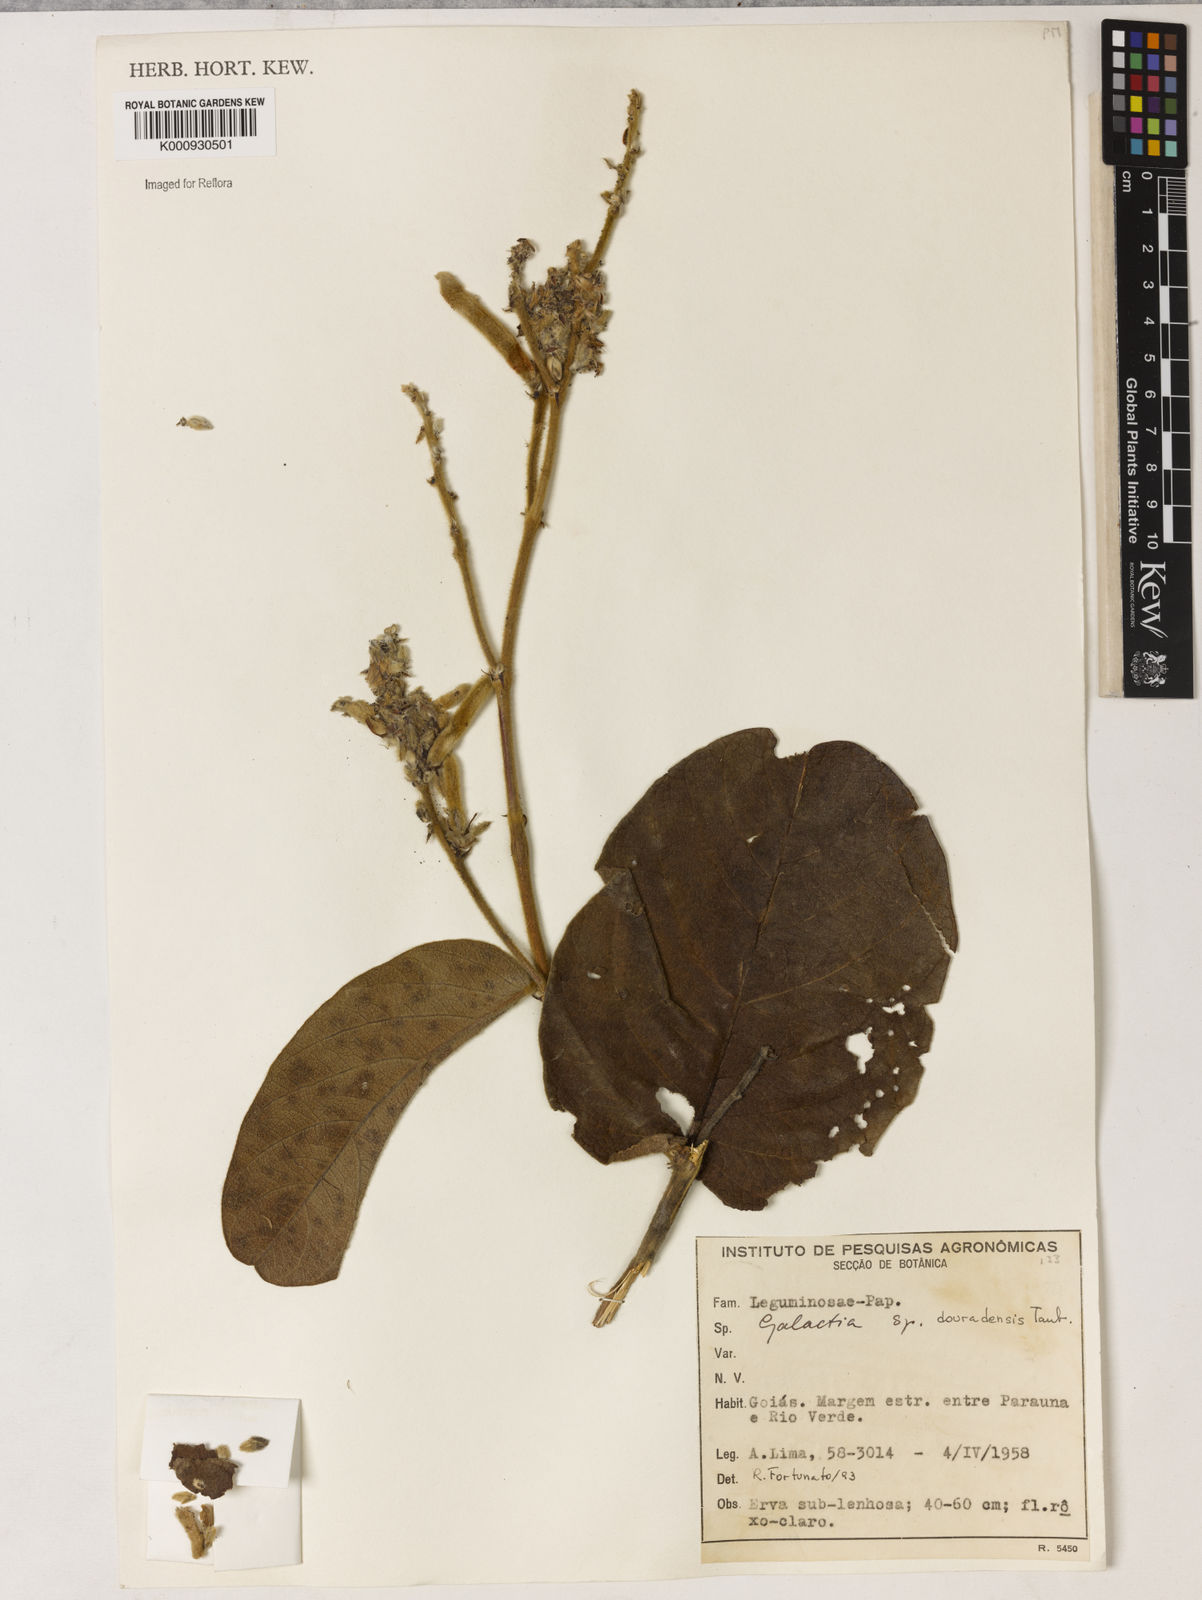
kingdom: Plantae
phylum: Tracheophyta
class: Magnoliopsida
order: Fabales
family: Fabaceae
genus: Cerradicola
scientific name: Cerradicola rotundifolia
